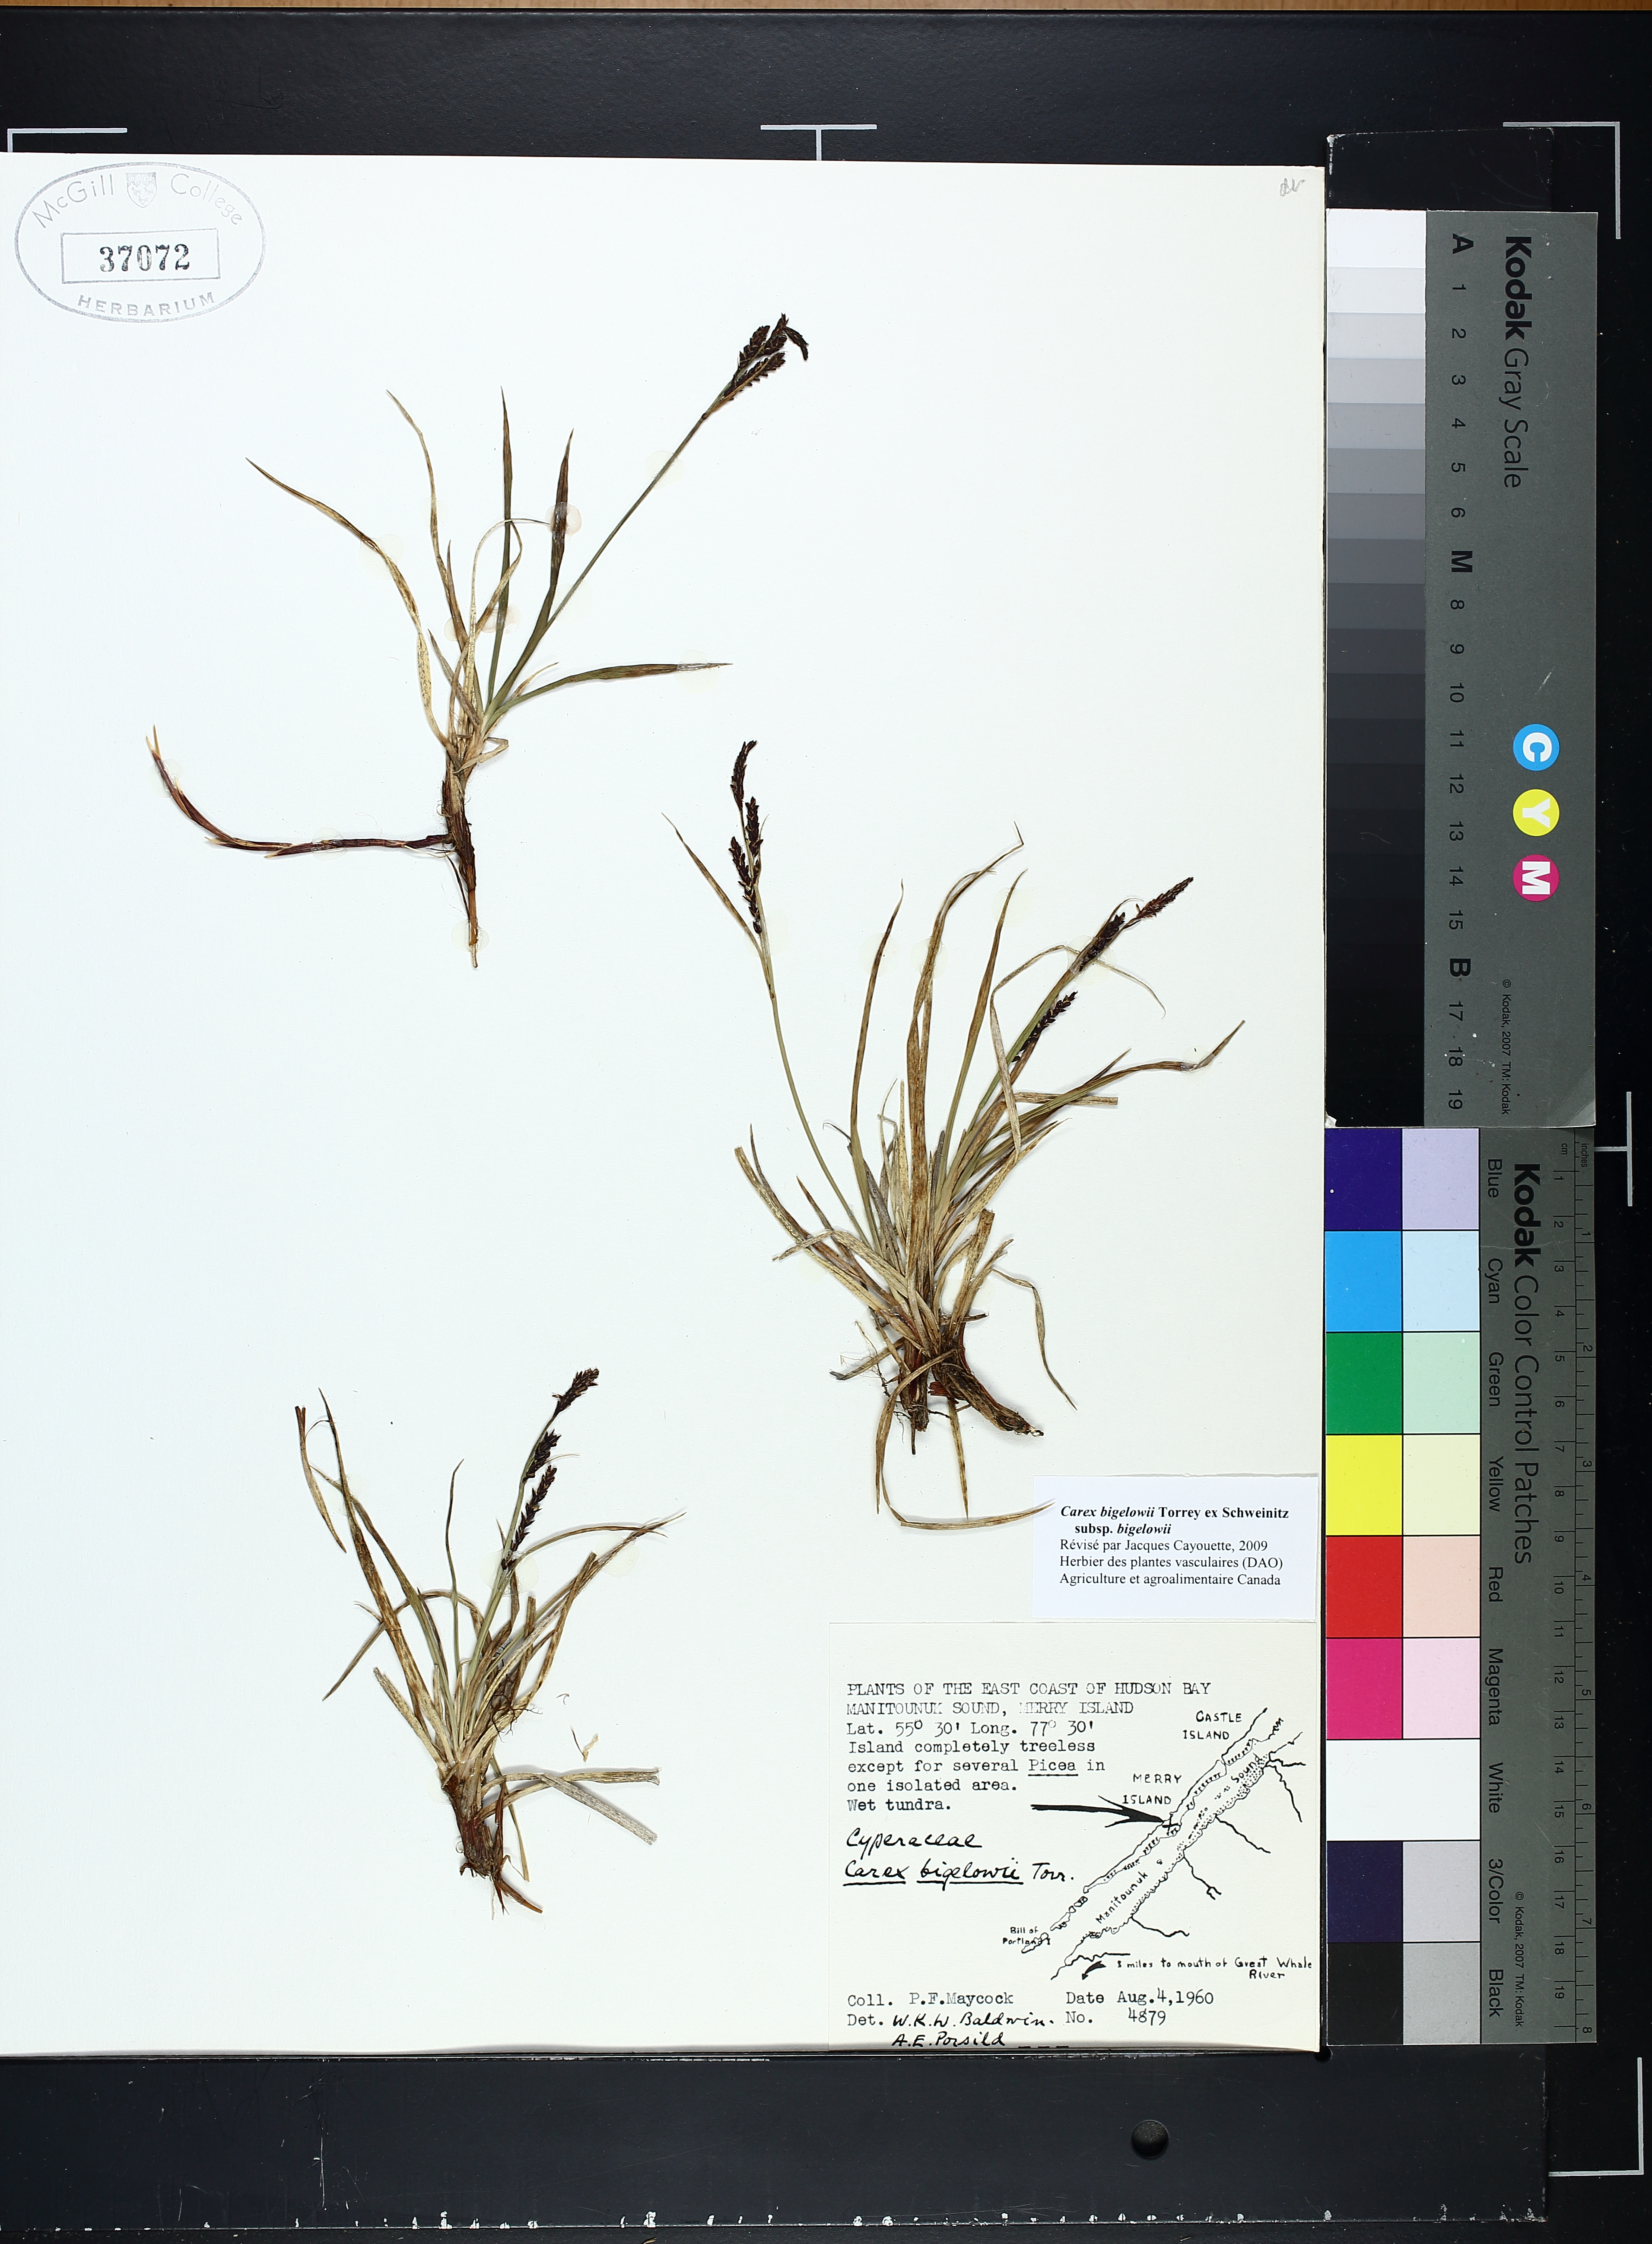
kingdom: Plantae
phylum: Tracheophyta
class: Liliopsida
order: Poales
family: Cyperaceae
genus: Carex
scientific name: Carex bigelowii
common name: Stiff sedge
